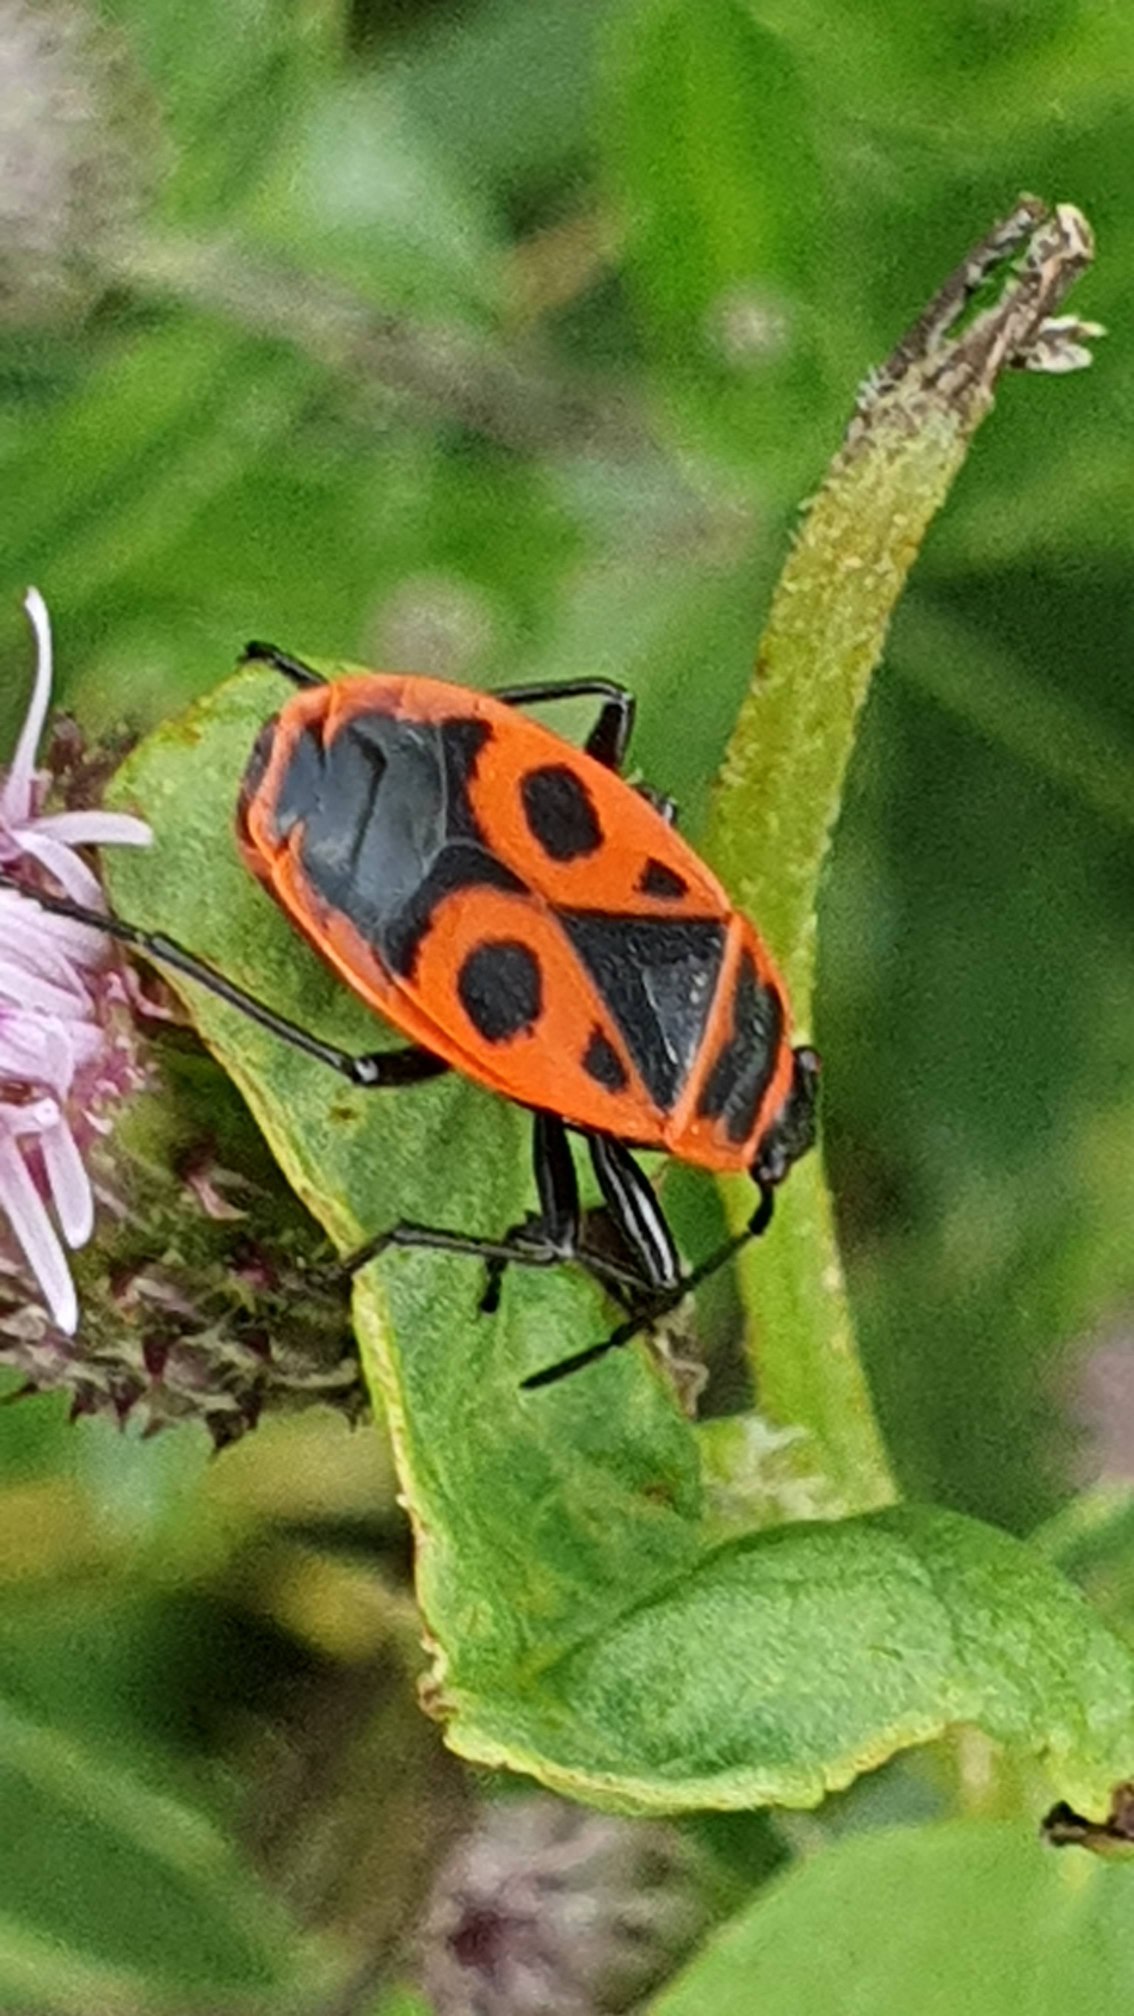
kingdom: Animalia
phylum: Arthropoda
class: Insecta
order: Hemiptera
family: Pyrrhocoridae
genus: Pyrrhocoris
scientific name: Pyrrhocoris apterus
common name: Ildtæge
